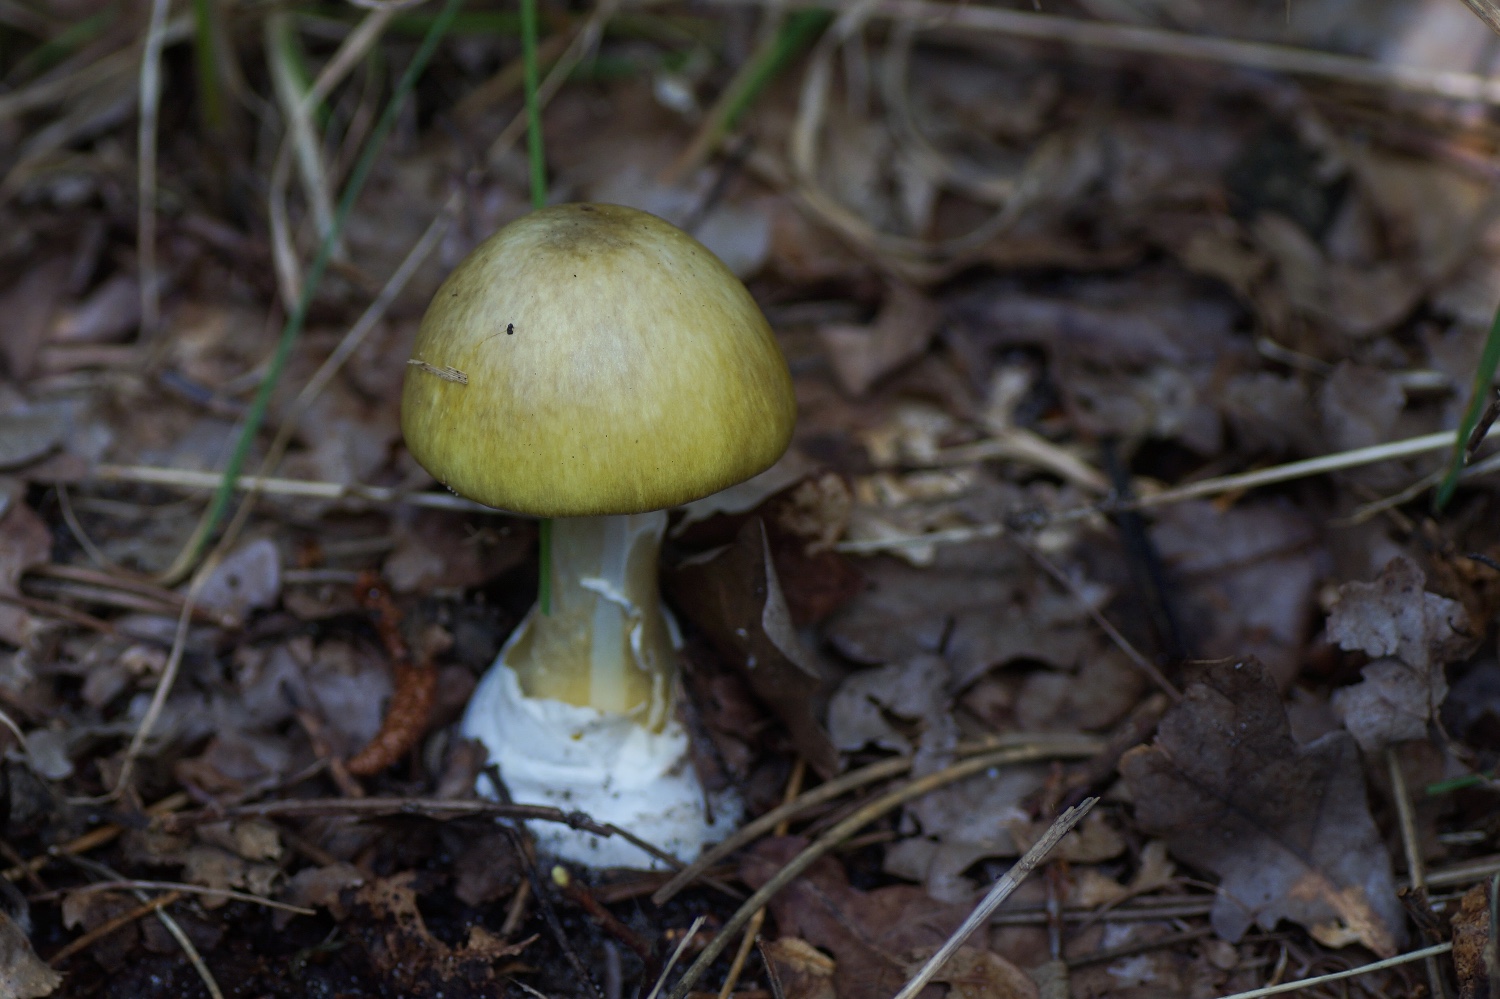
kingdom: Fungi
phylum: Basidiomycota
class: Agaricomycetes
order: Agaricales
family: Amanitaceae
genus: Amanita
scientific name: Amanita phalloides
